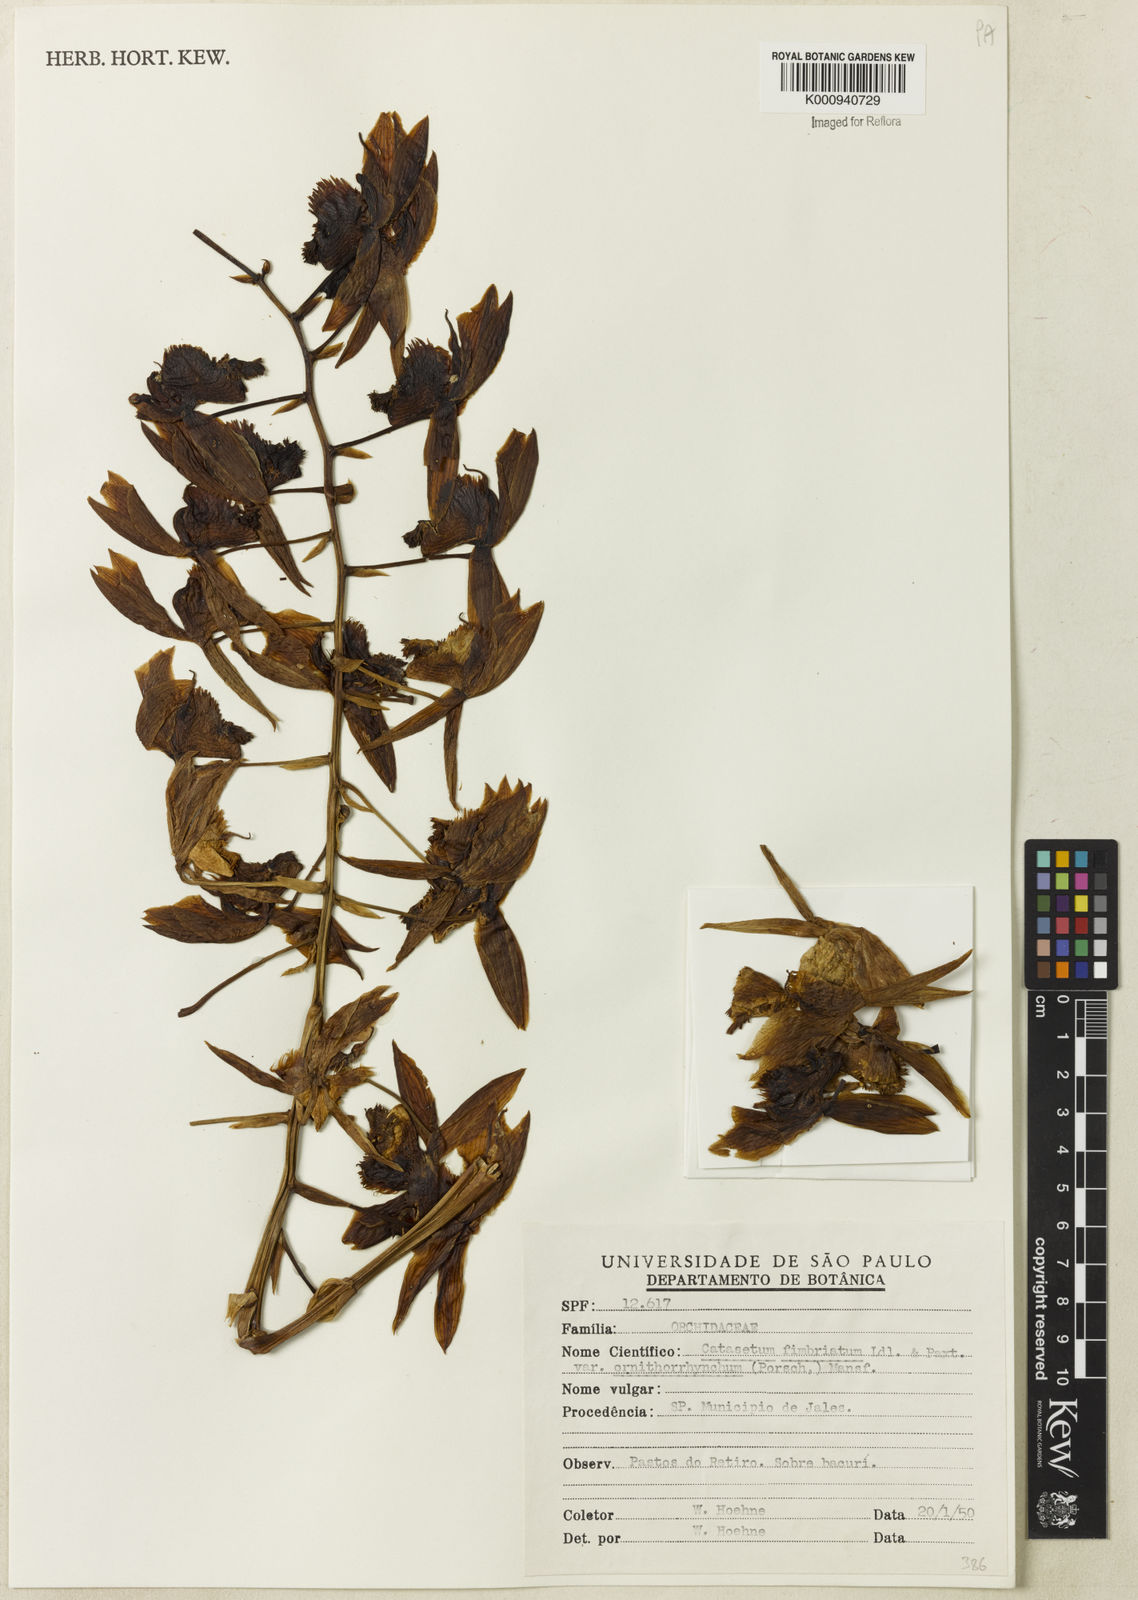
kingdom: Plantae
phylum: Tracheophyta
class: Liliopsida
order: Asparagales
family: Orchidaceae
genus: Catasetum
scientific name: Catasetum fimbriatum
